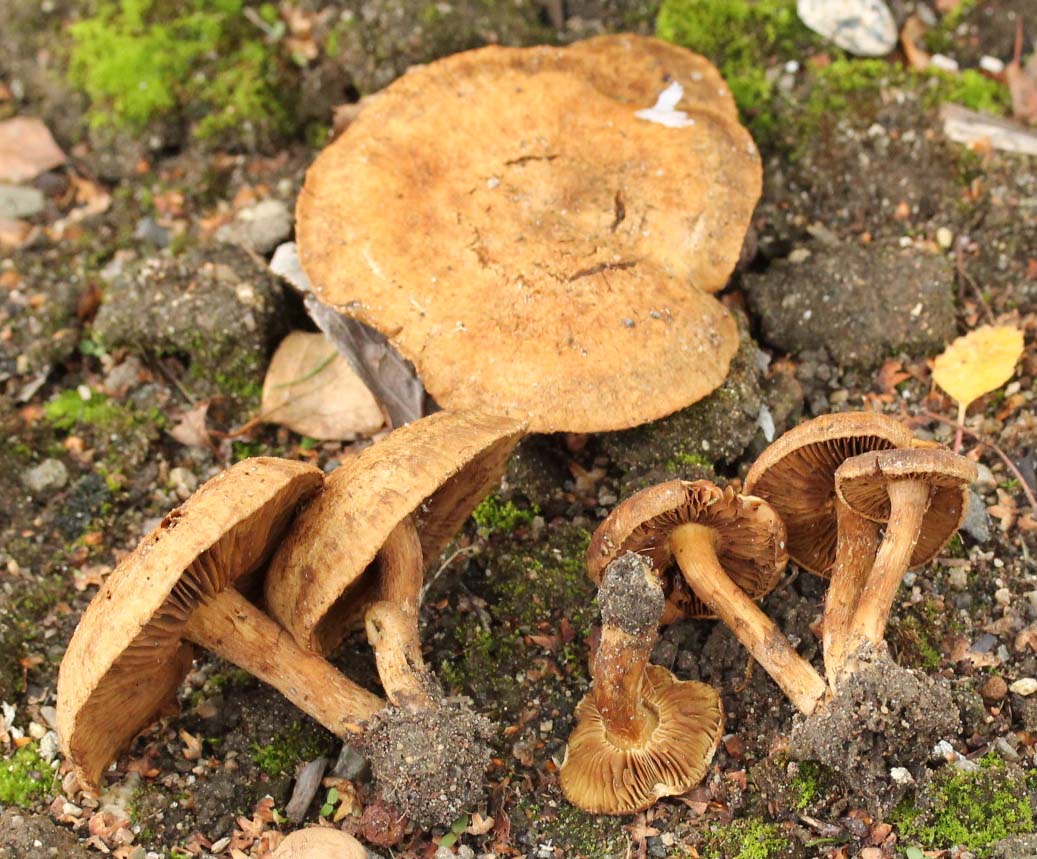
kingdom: Fungi
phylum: Basidiomycota
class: Agaricomycetes
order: Agaricales
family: Inocybaceae
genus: Inocybe
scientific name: Inocybe dulcamara
